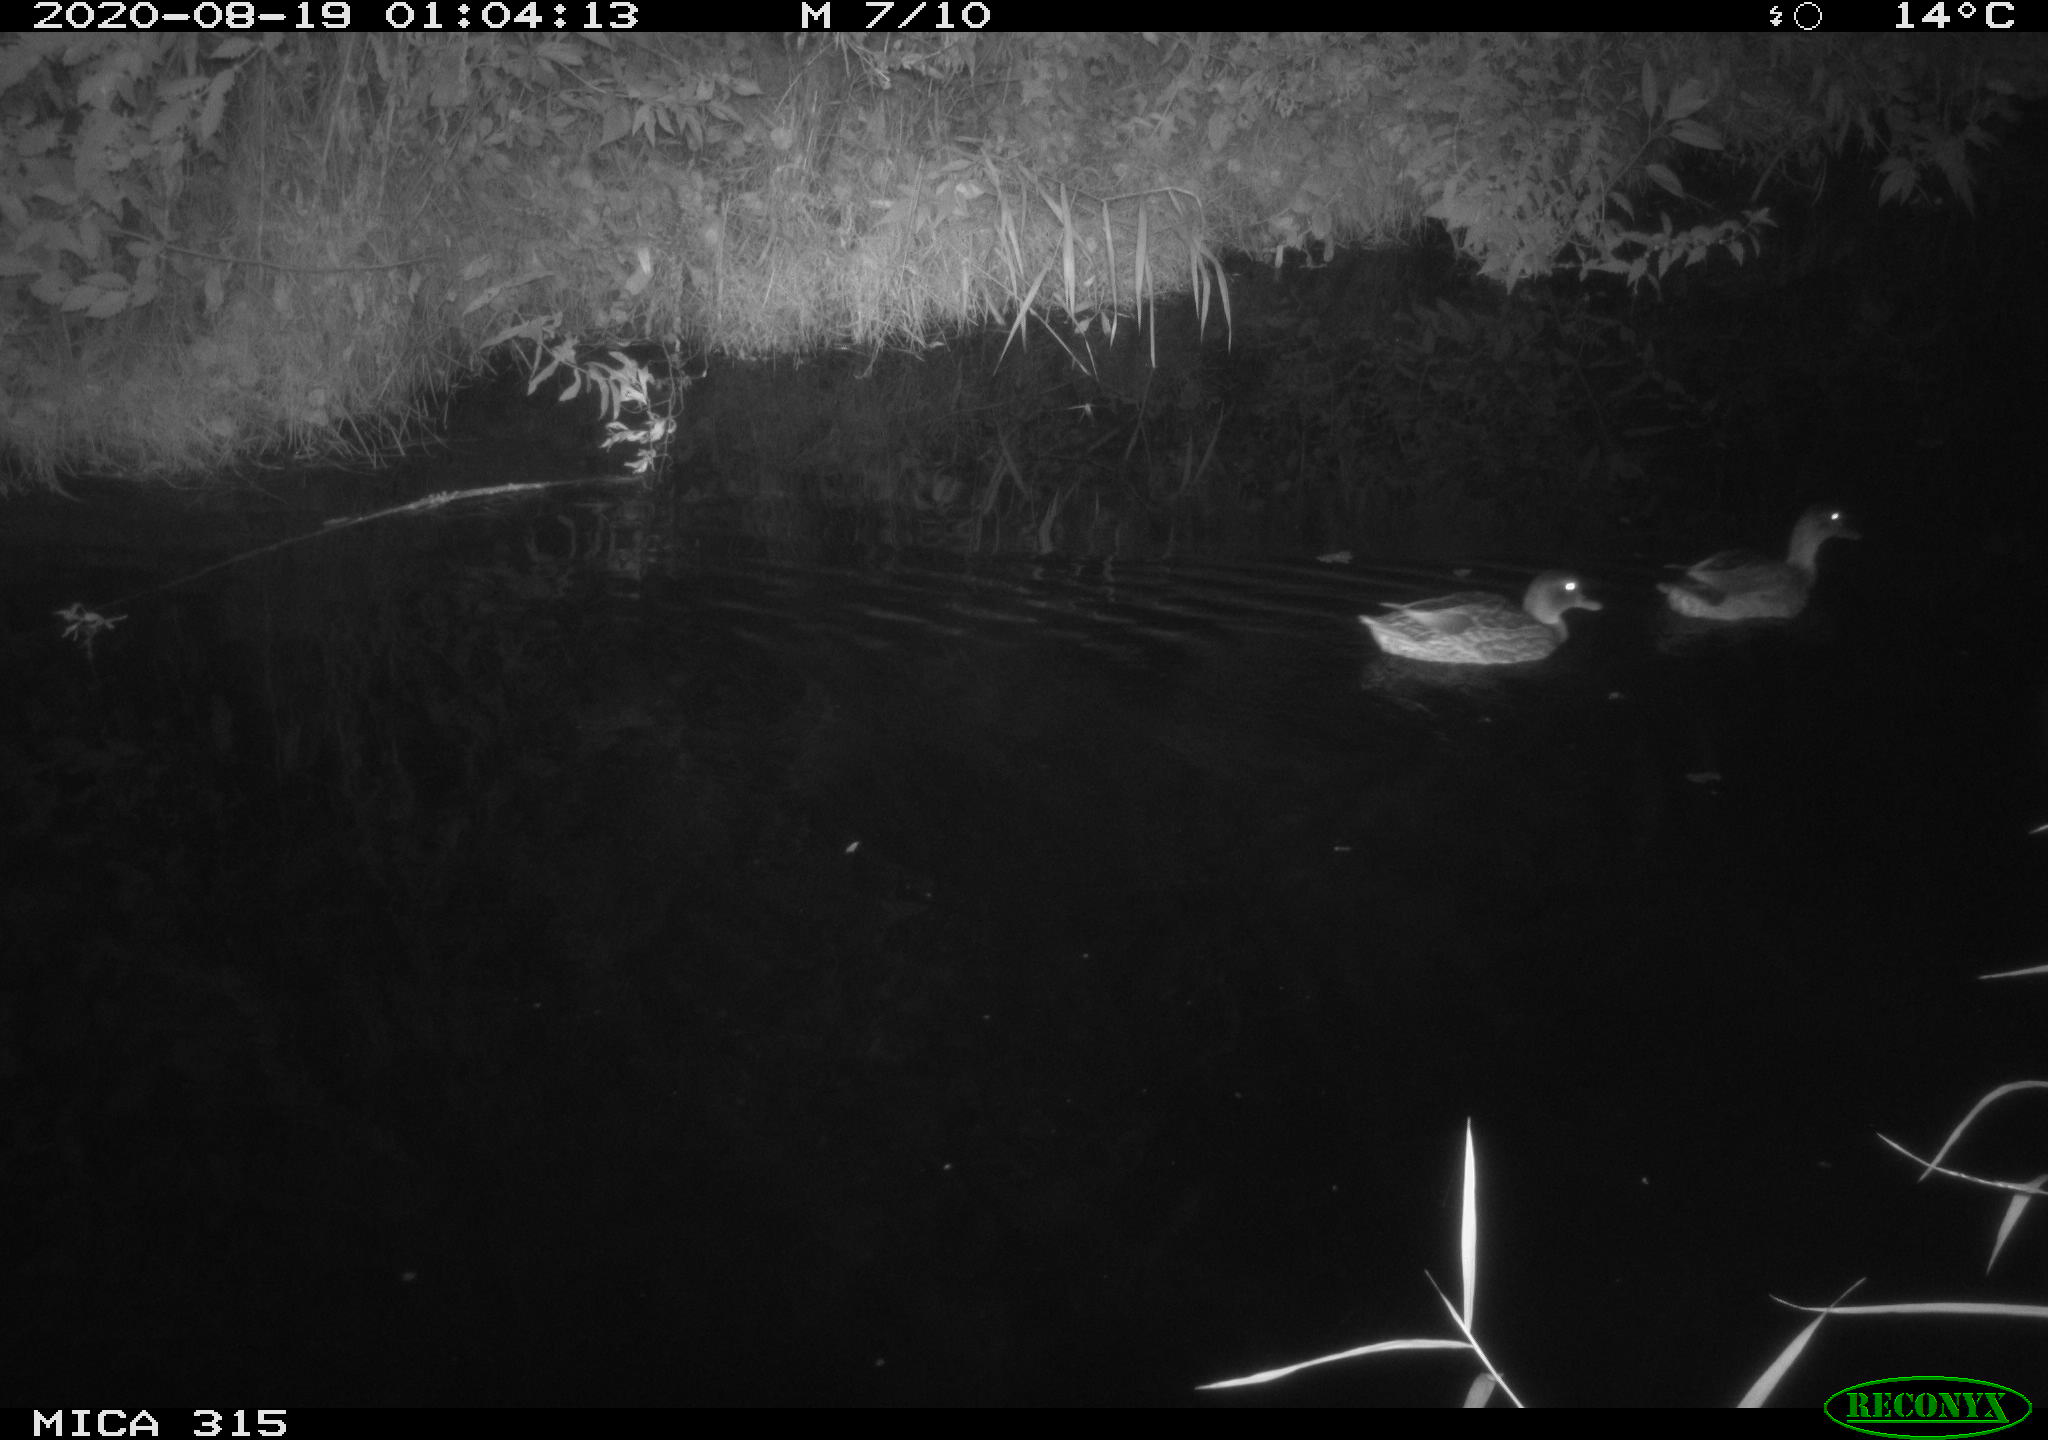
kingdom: Animalia
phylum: Chordata
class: Aves
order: Anseriformes
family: Anatidae
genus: Anas
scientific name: Anas platyrhynchos
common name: Mallard
